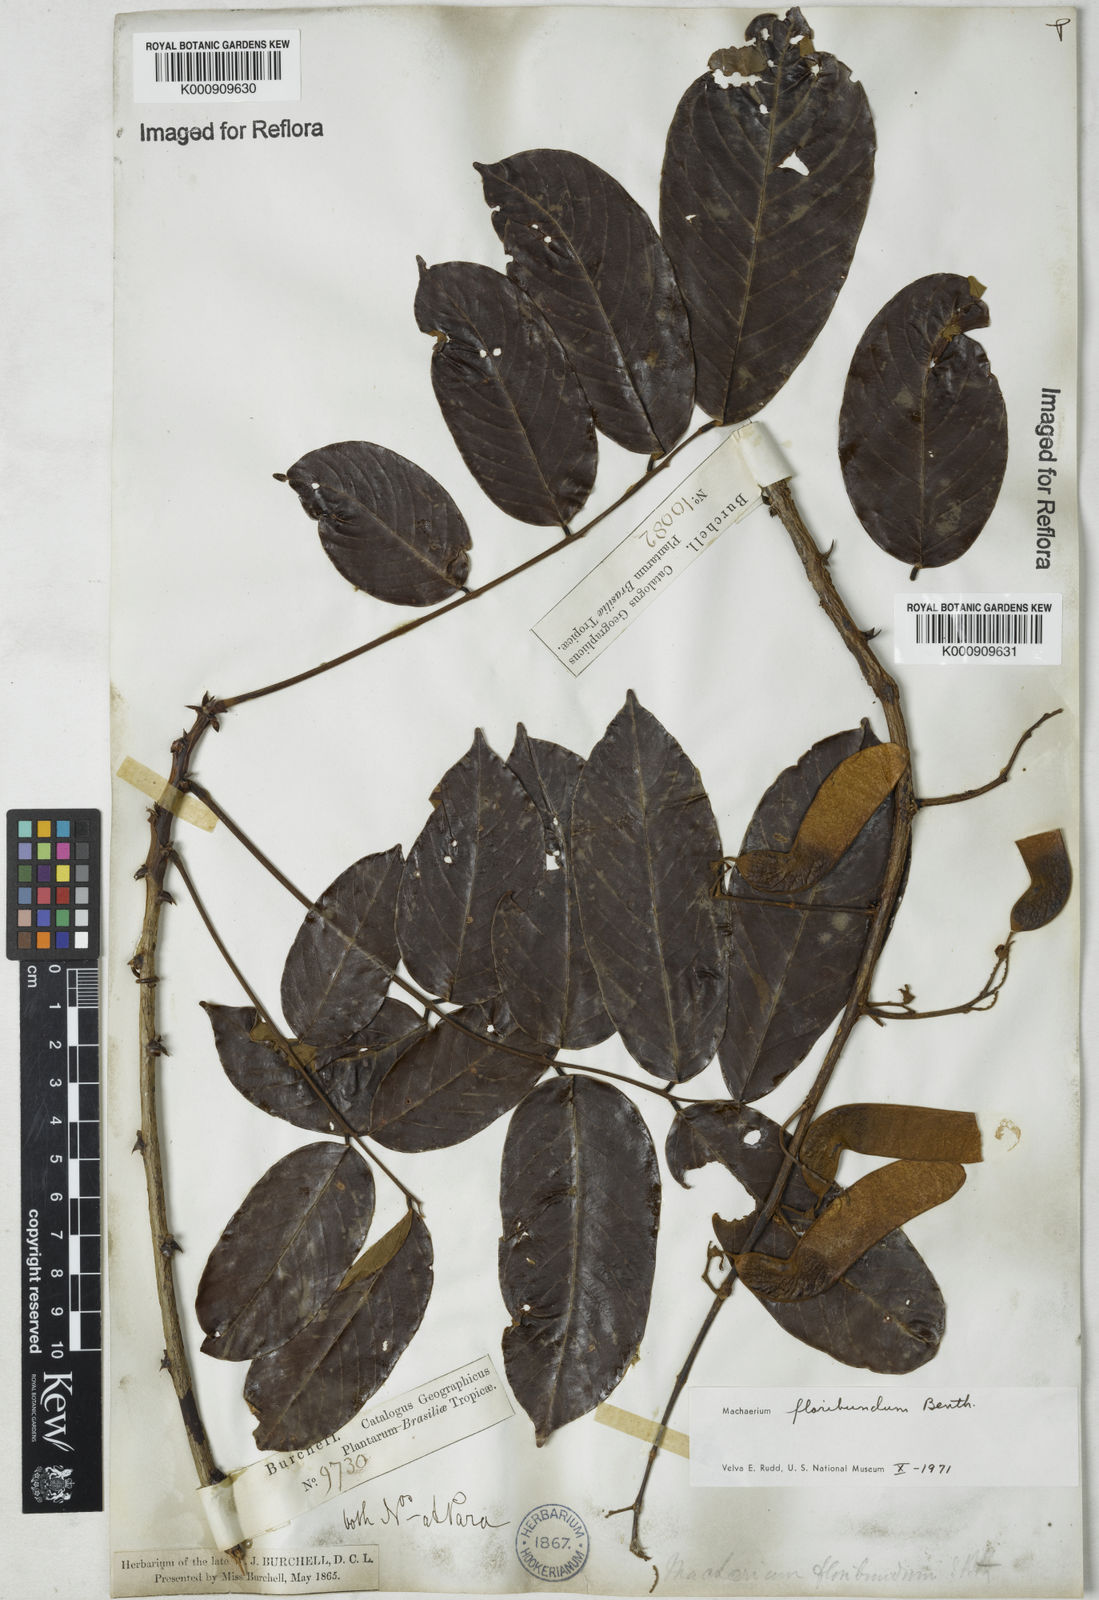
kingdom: Plantae
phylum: Tracheophyta
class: Magnoliopsida
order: Fabales
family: Fabaceae
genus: Machaerium
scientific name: Machaerium floribundum
